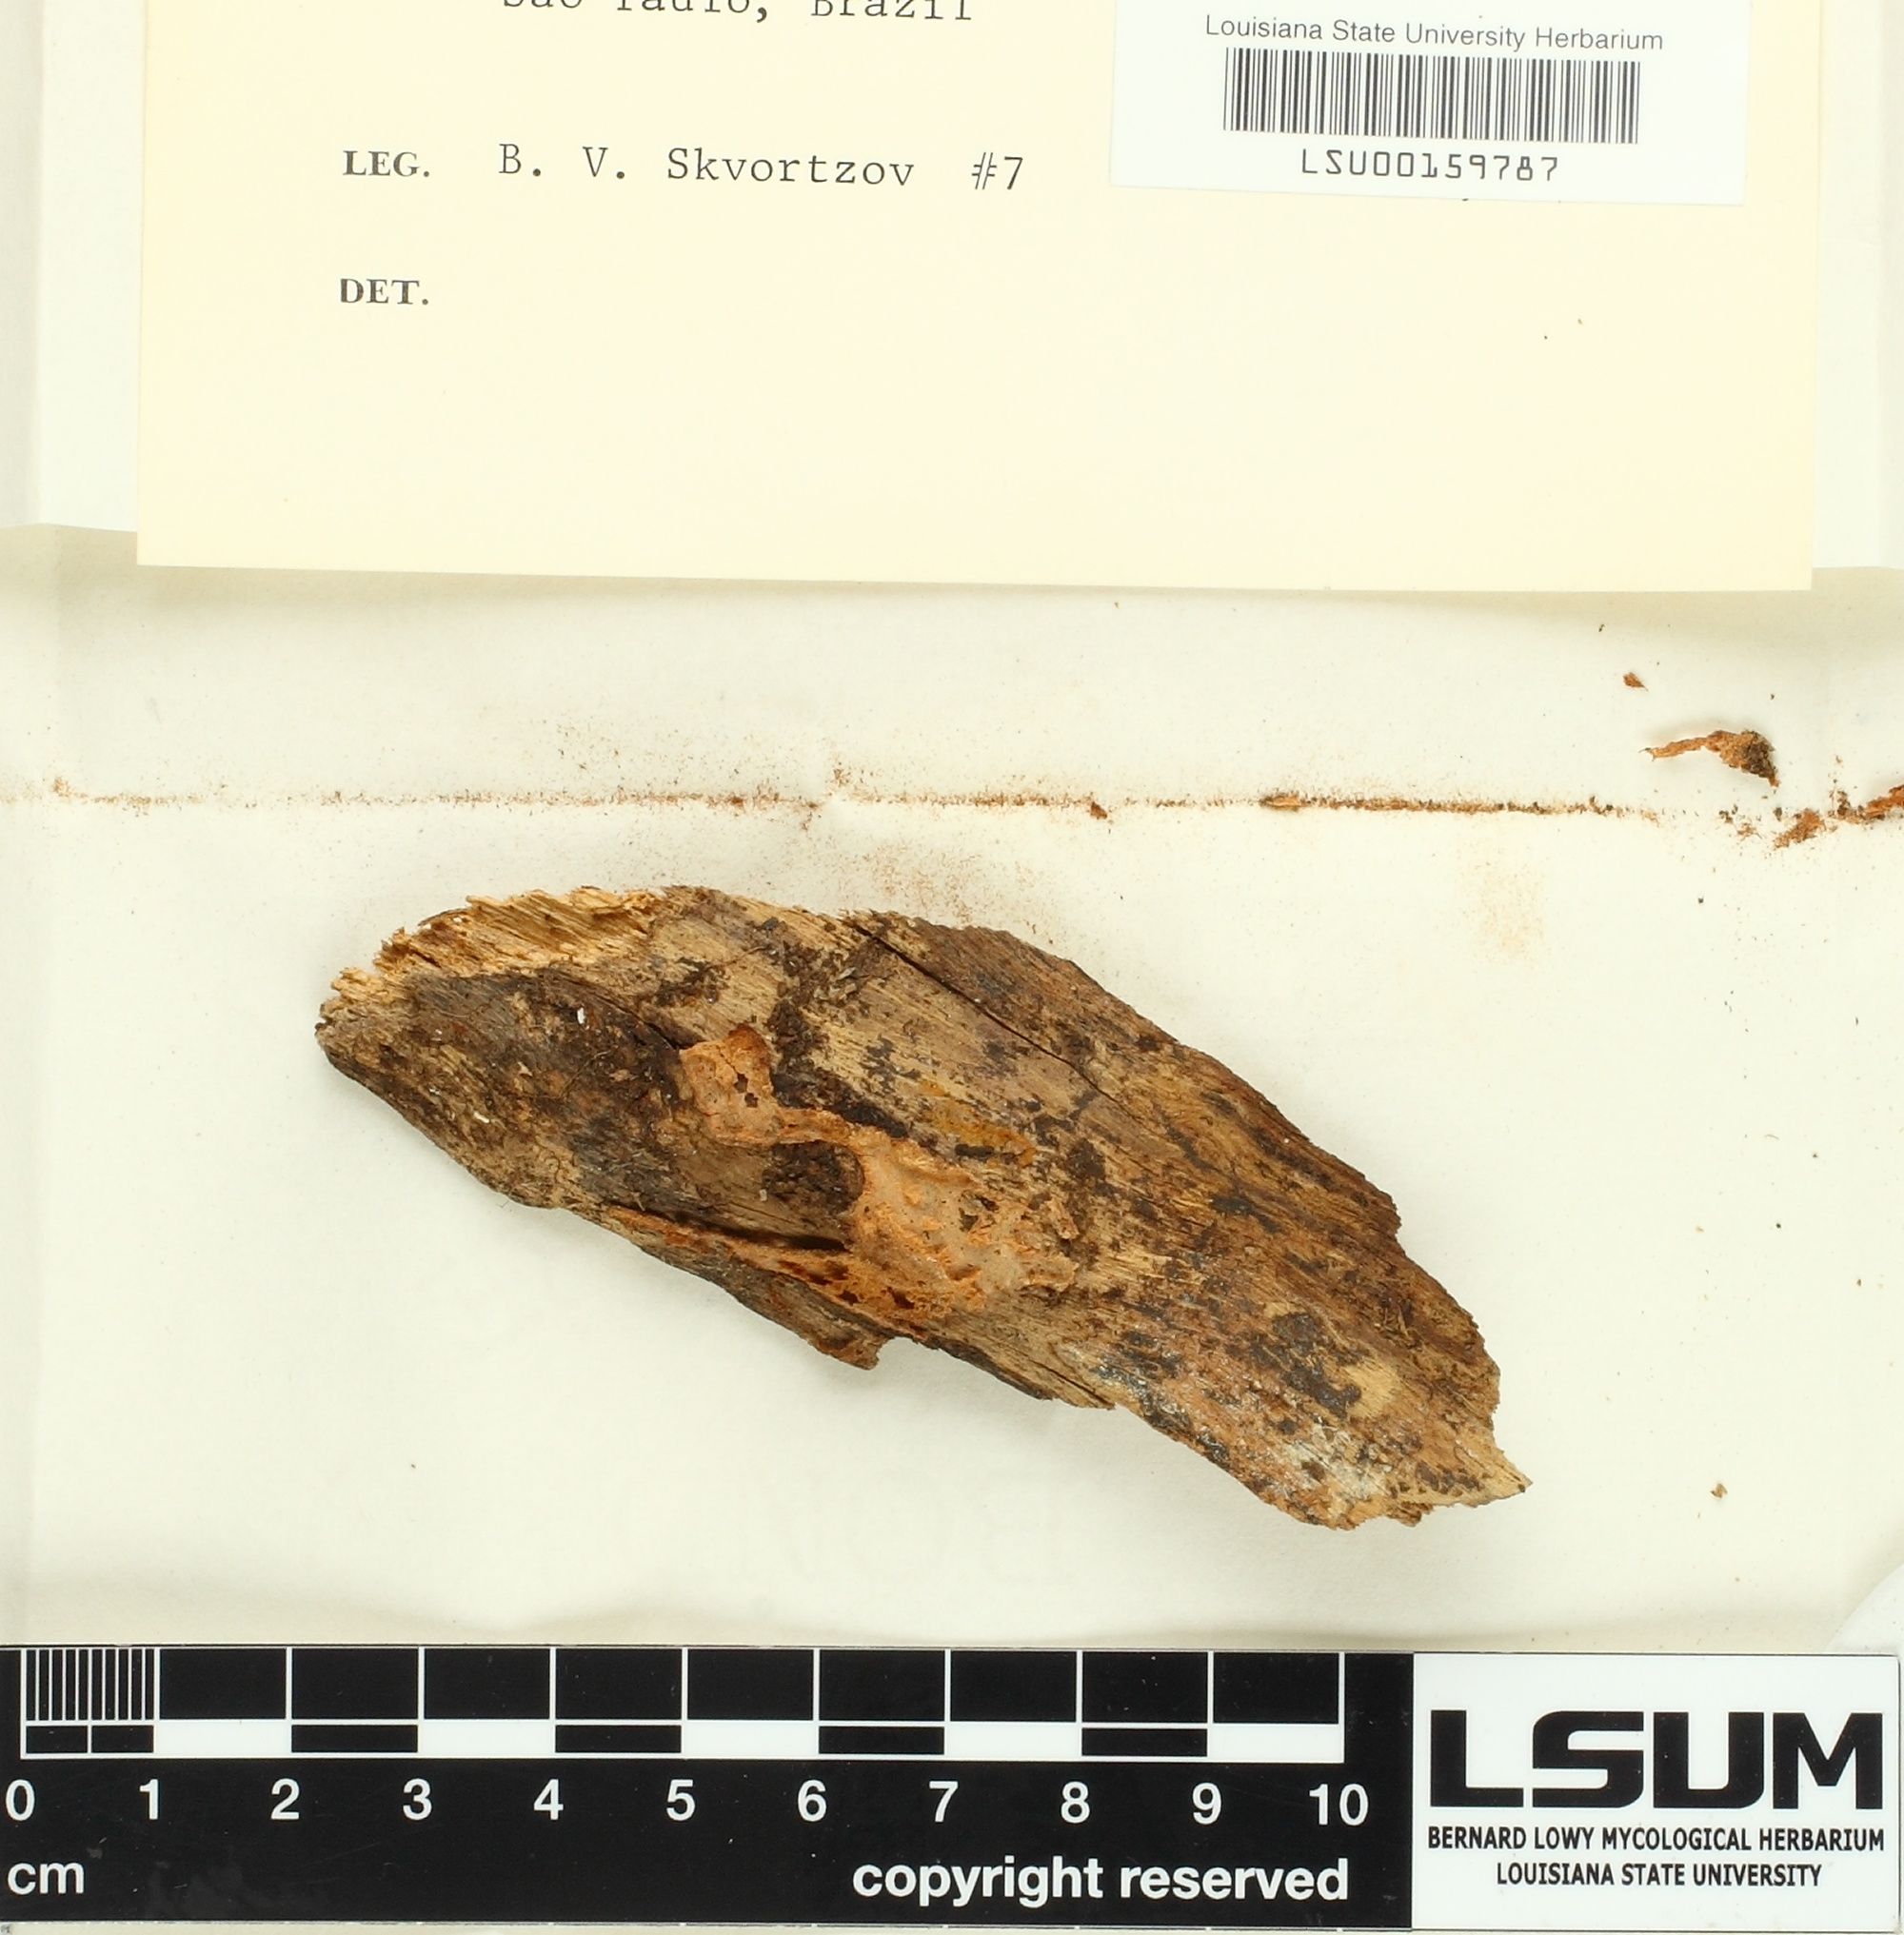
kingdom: Fungi
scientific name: Fungi
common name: Fungi
